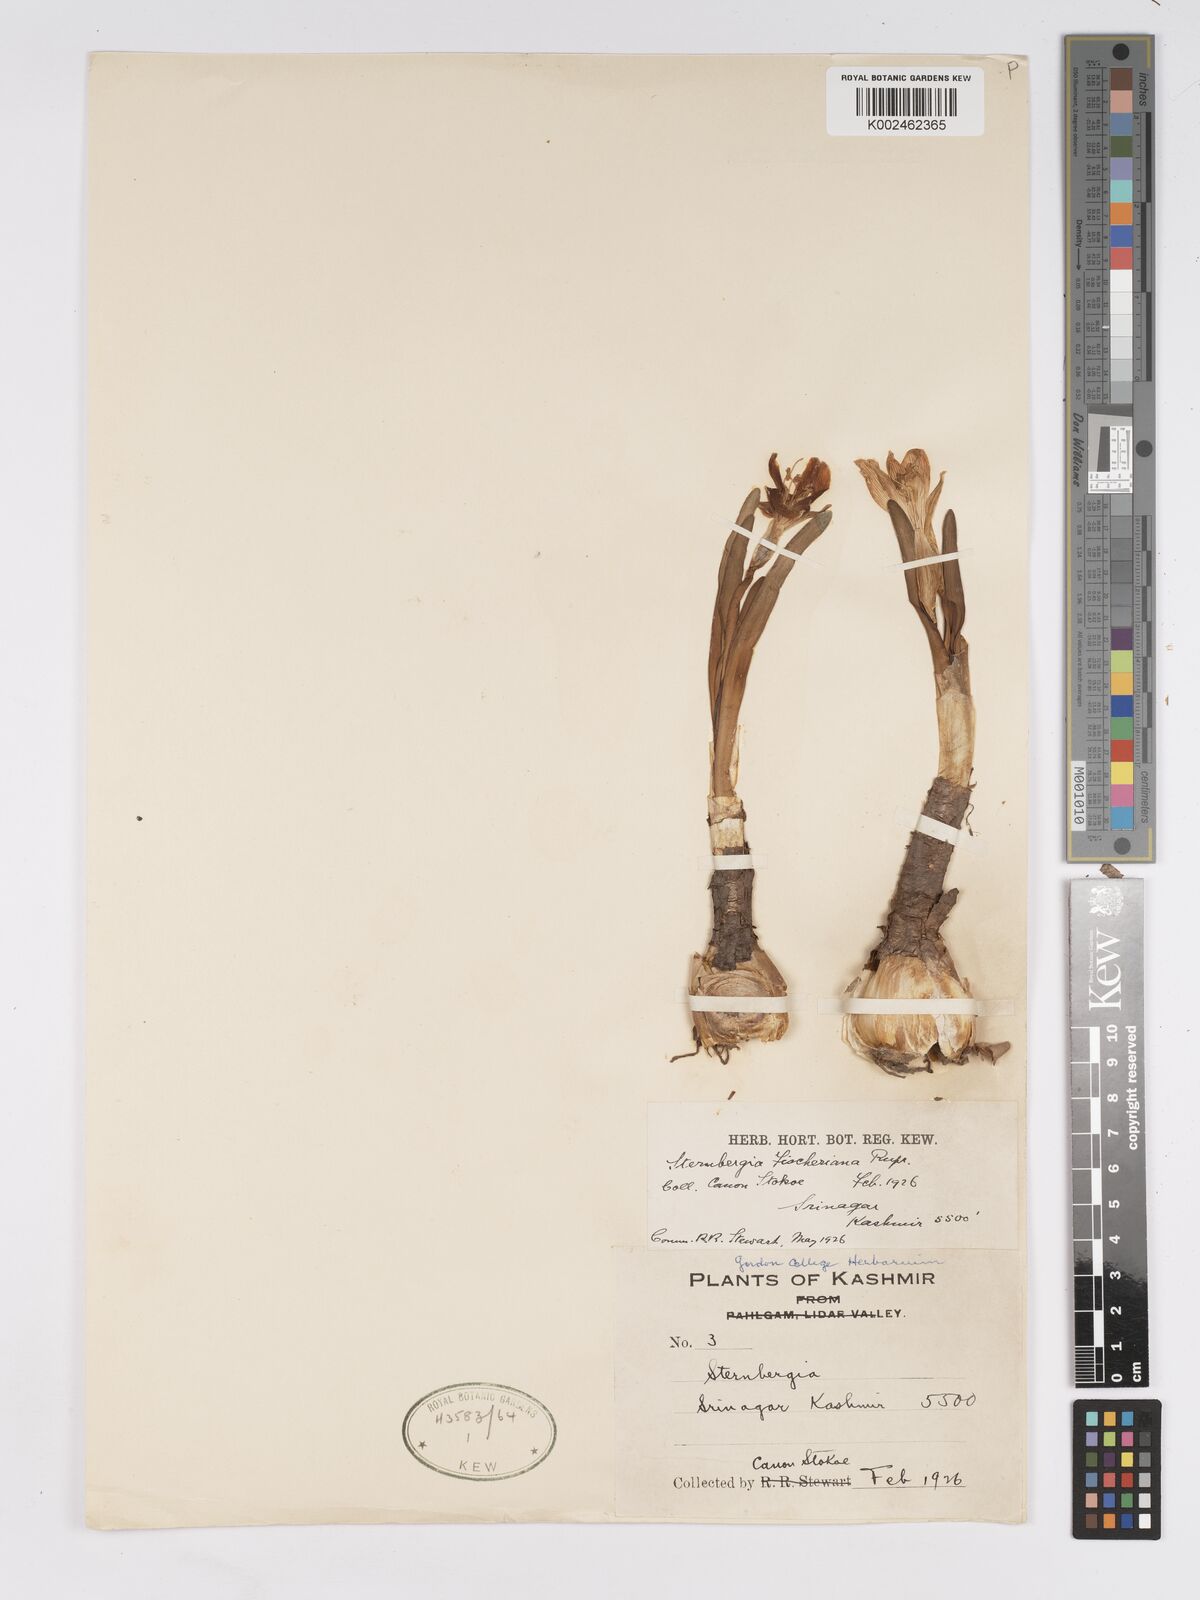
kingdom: Plantae
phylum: Tracheophyta
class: Liliopsida
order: Asparagales
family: Amaryllidaceae
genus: Sternbergia
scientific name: Sternbergia vernalis
